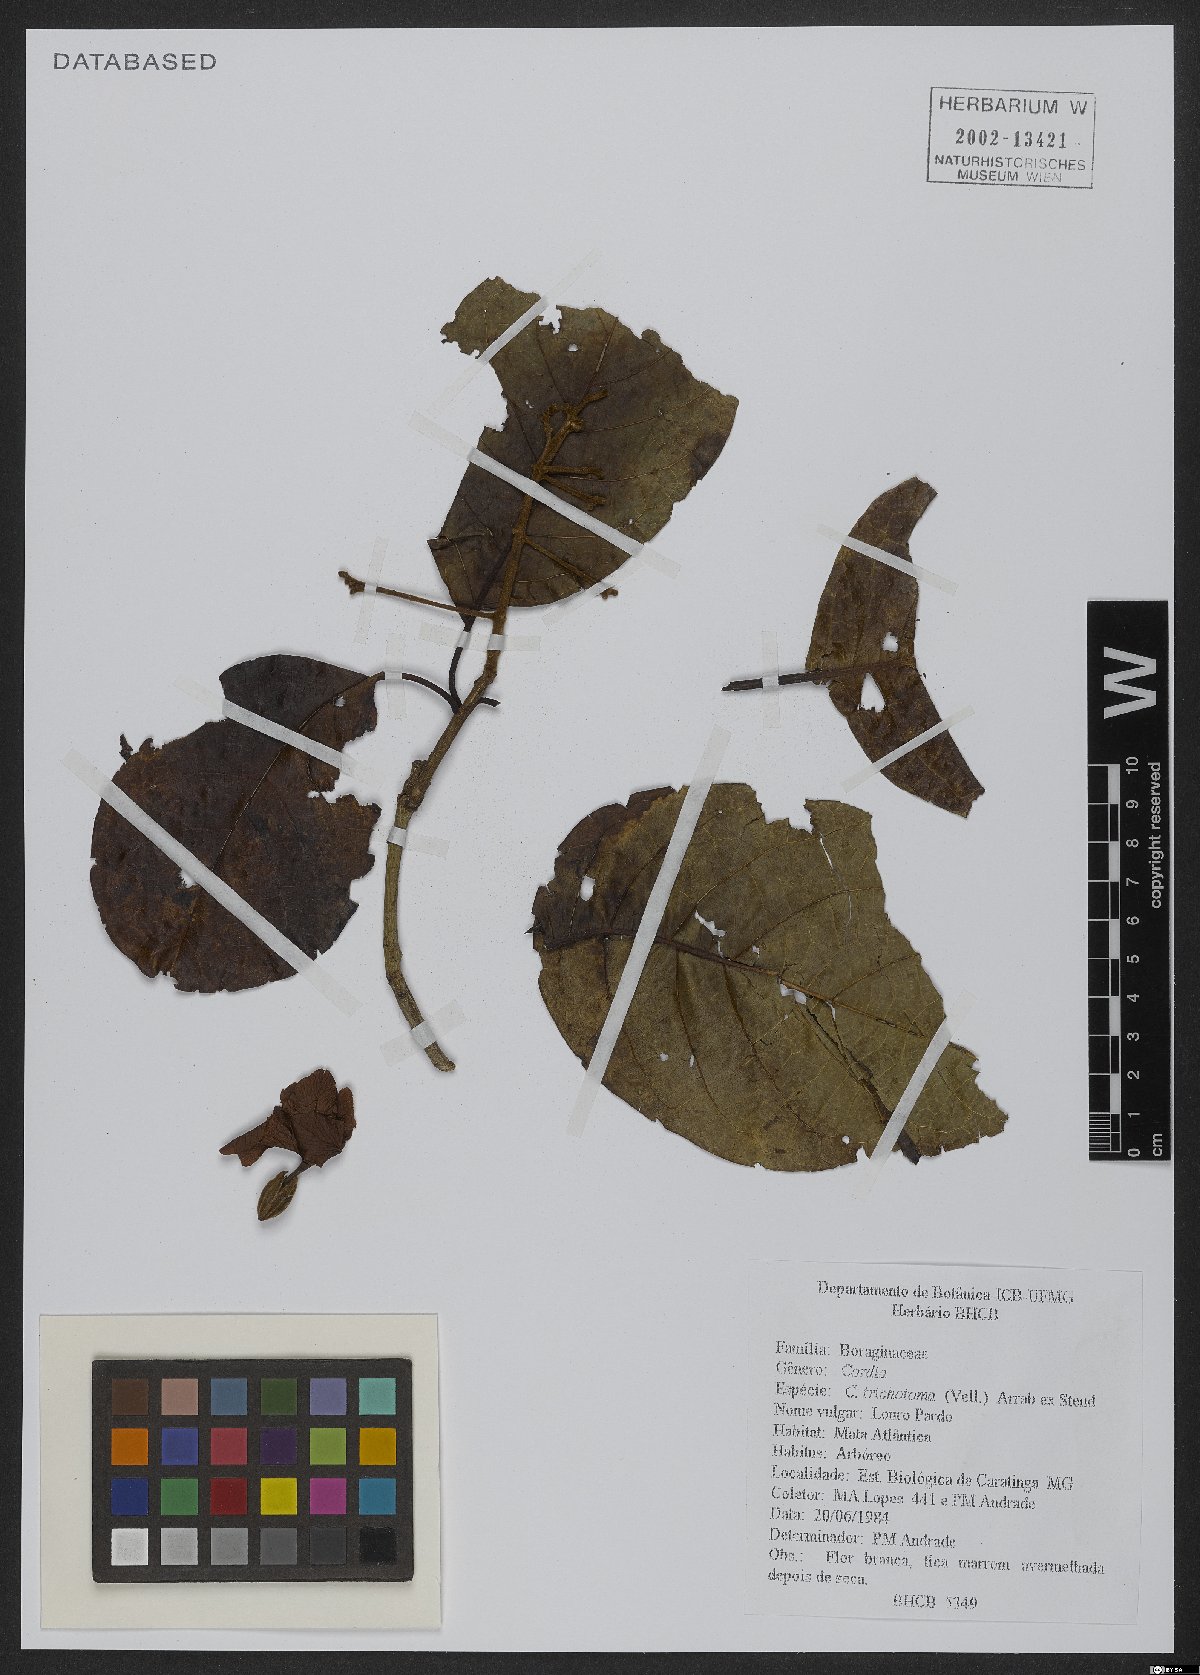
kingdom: Plantae
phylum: Tracheophyta
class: Magnoliopsida
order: Boraginales
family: Cordiaceae
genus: Cordia
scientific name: Cordia trichotoma
